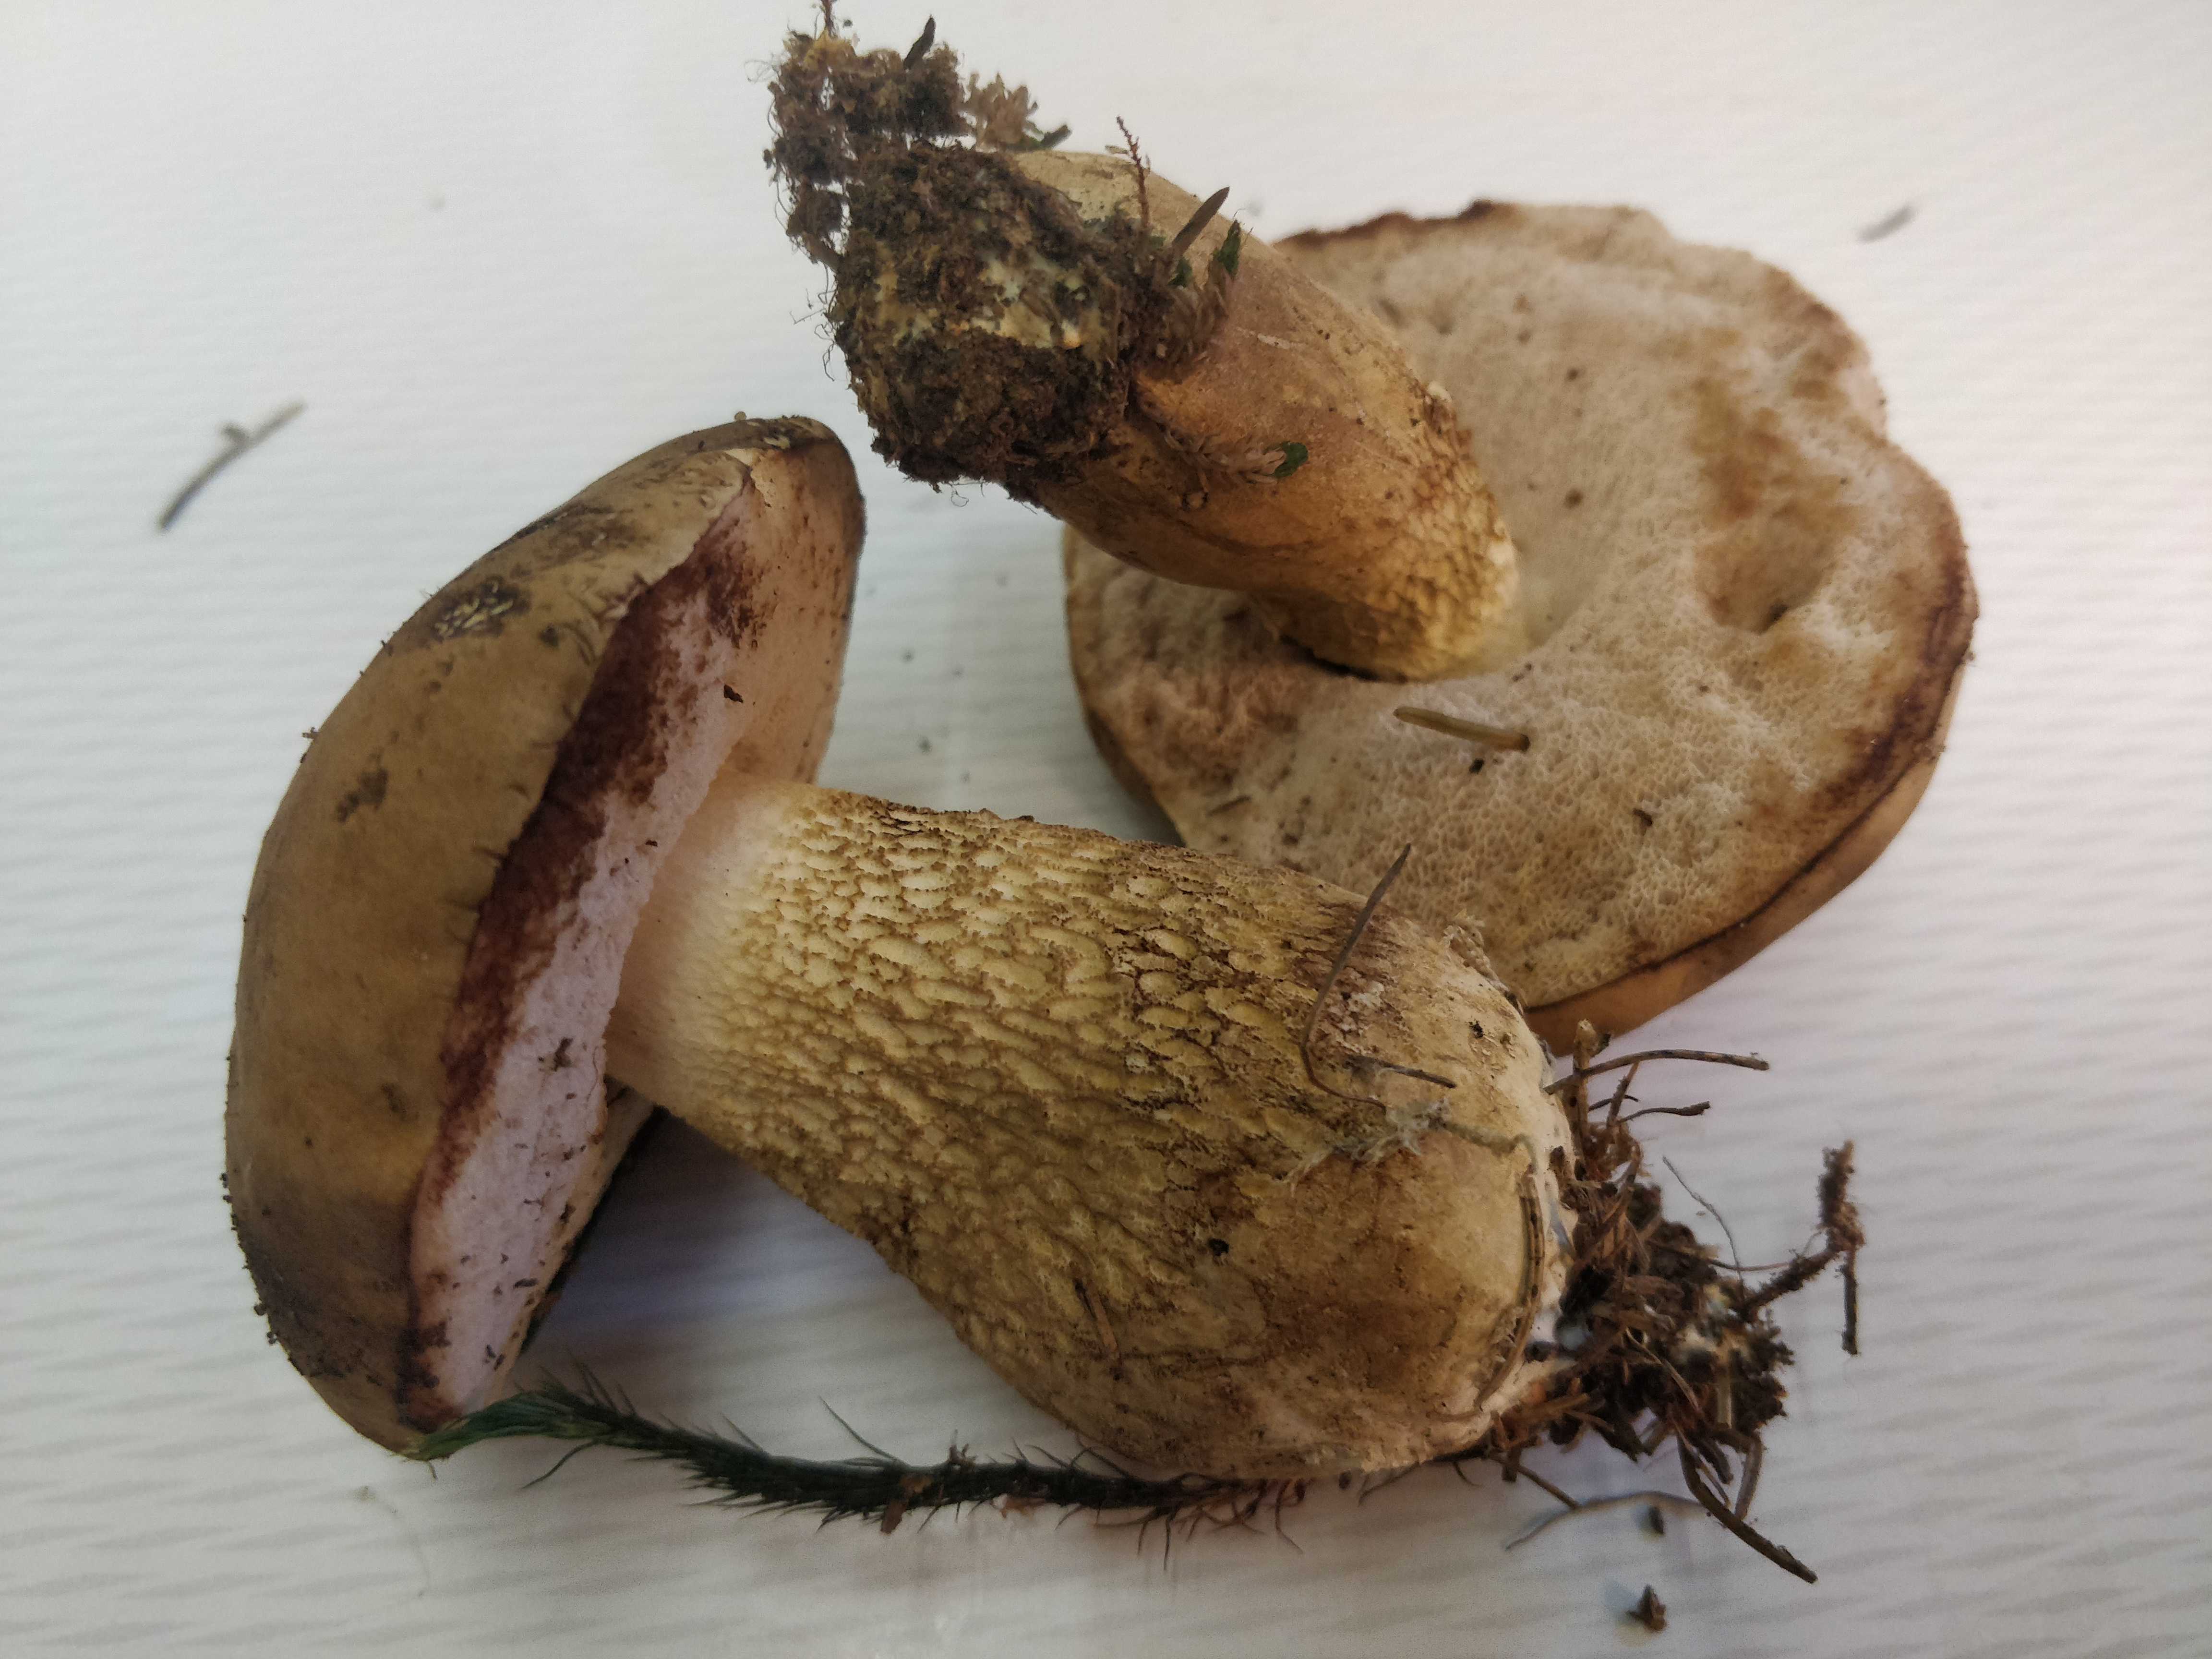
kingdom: Fungi
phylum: Basidiomycota
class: Agaricomycetes
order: Boletales
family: Boletaceae
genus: Tylopilus
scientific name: Tylopilus felleus
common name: galderørhat
